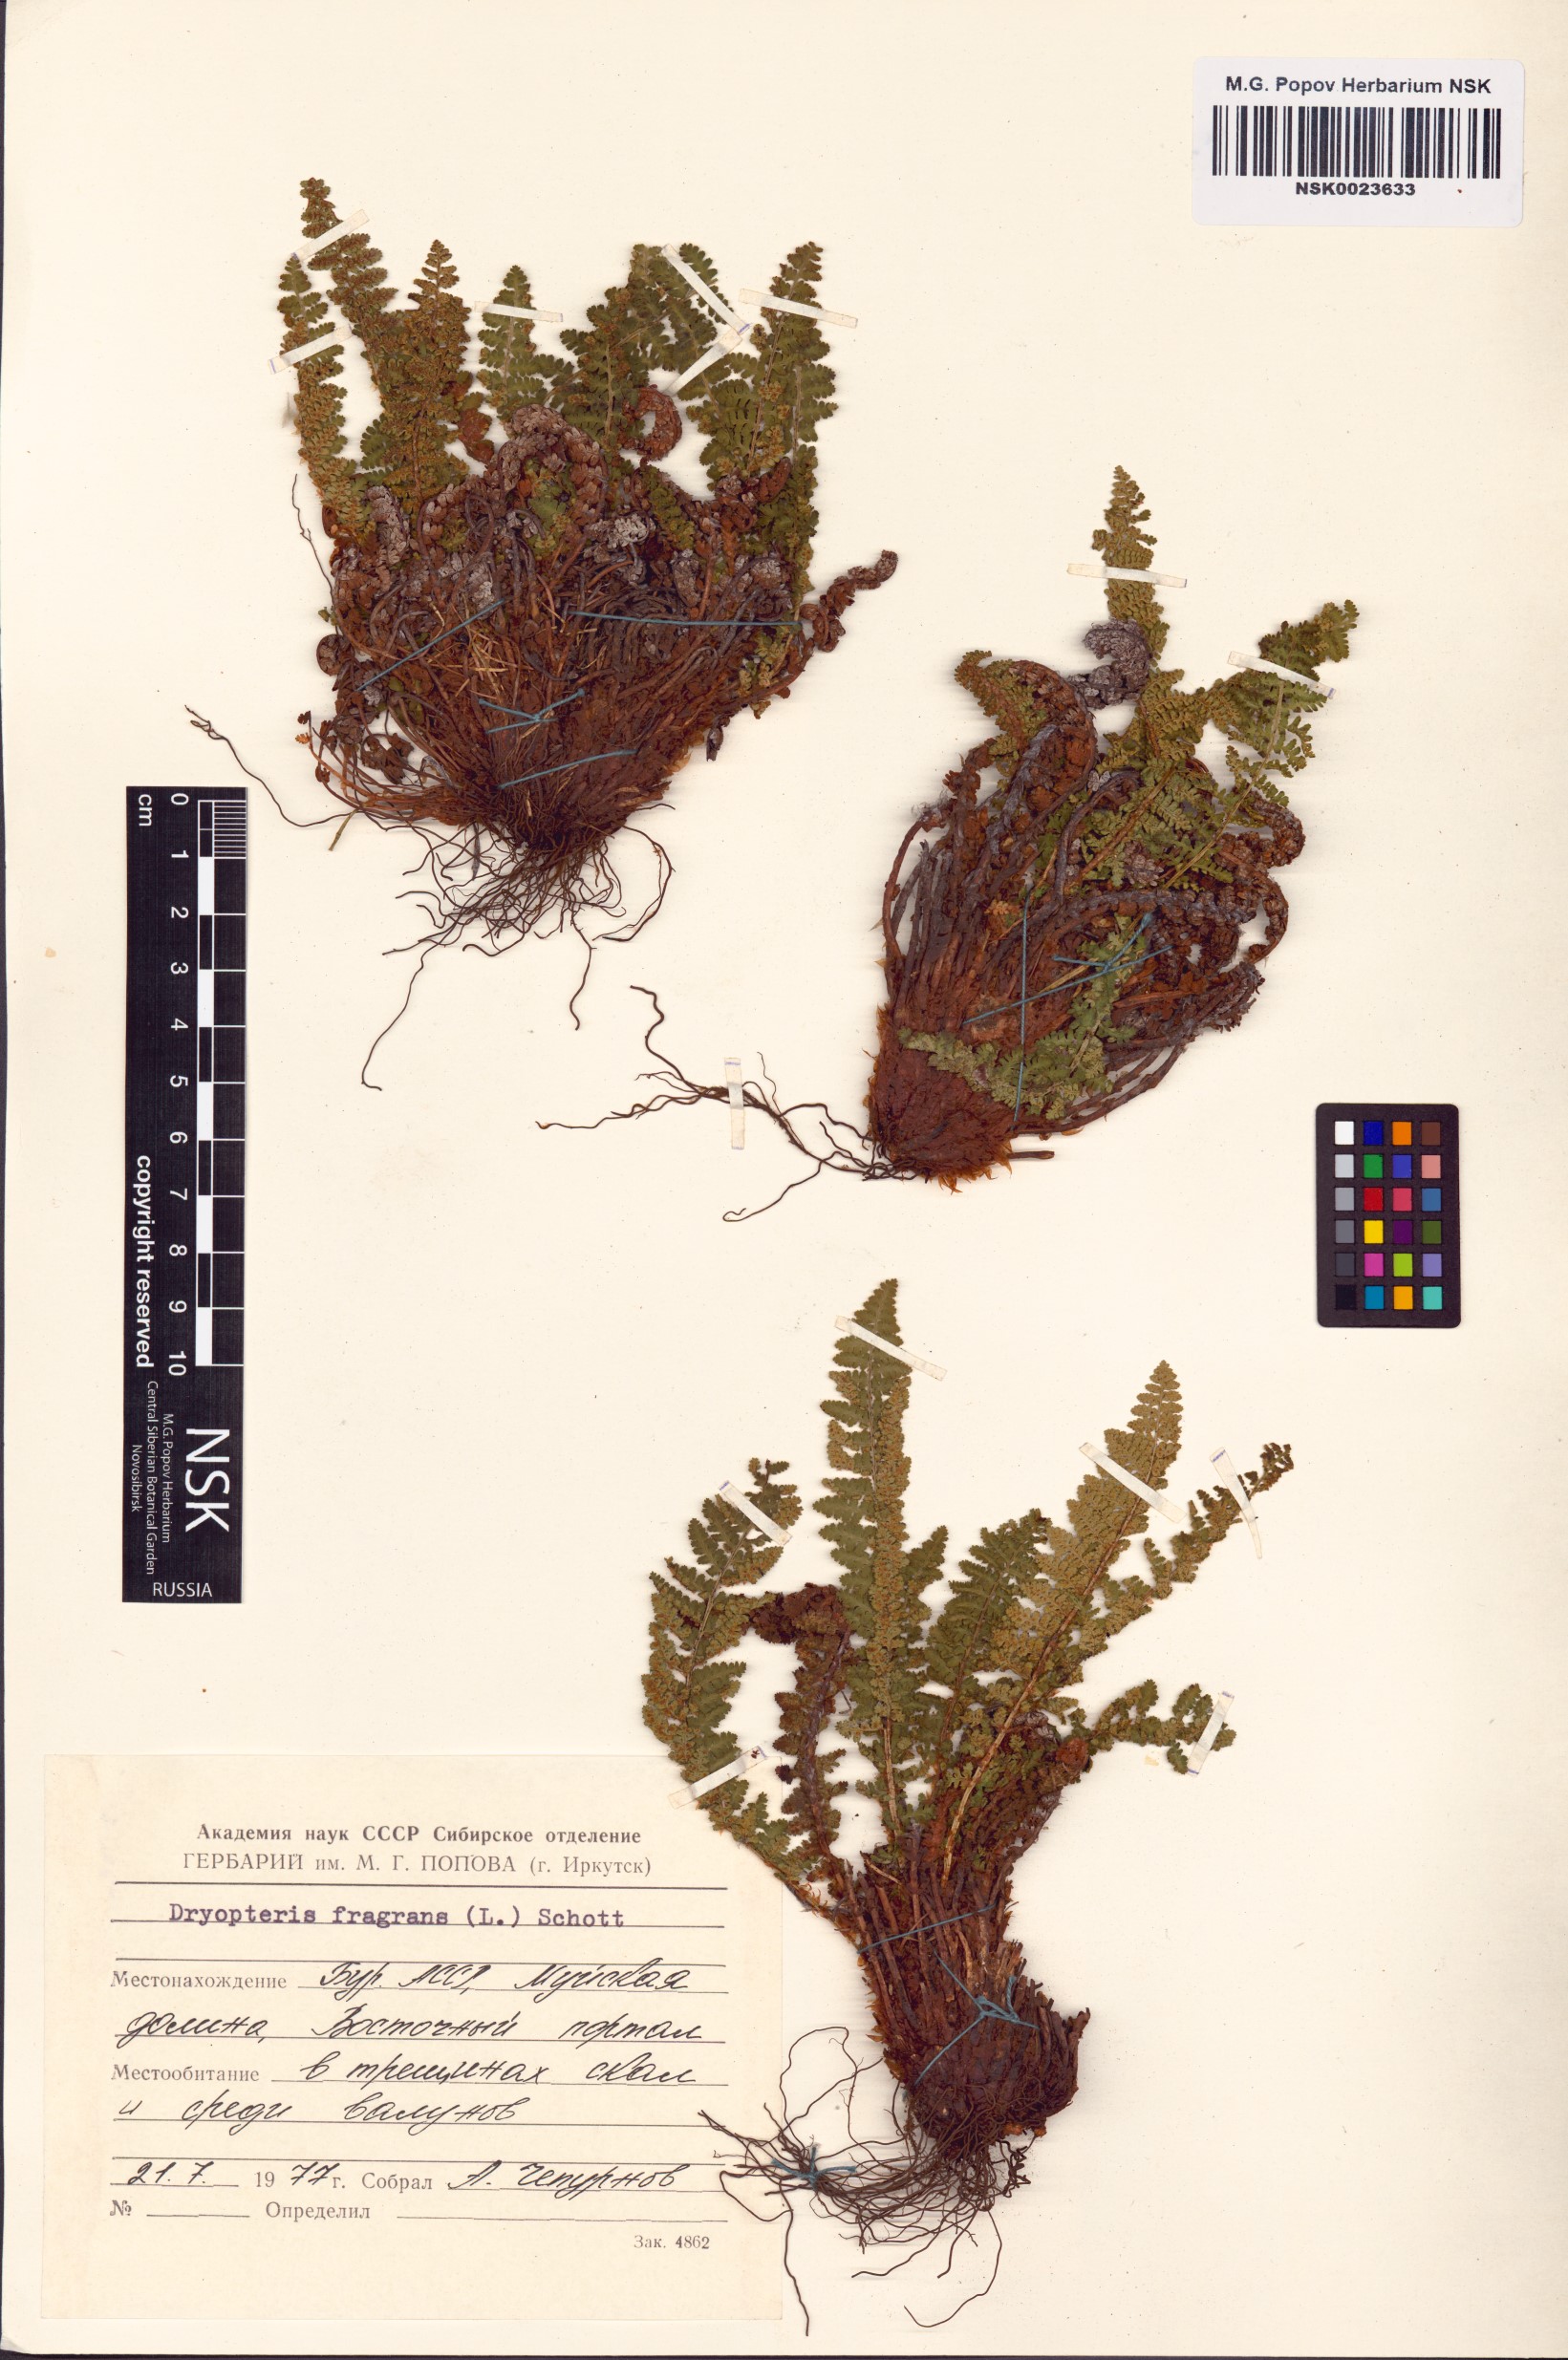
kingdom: Plantae
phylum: Tracheophyta
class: Polypodiopsida
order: Polypodiales
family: Dryopteridaceae
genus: Dryopteris
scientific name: Dryopteris fragrans
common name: Fragrant wood fern
